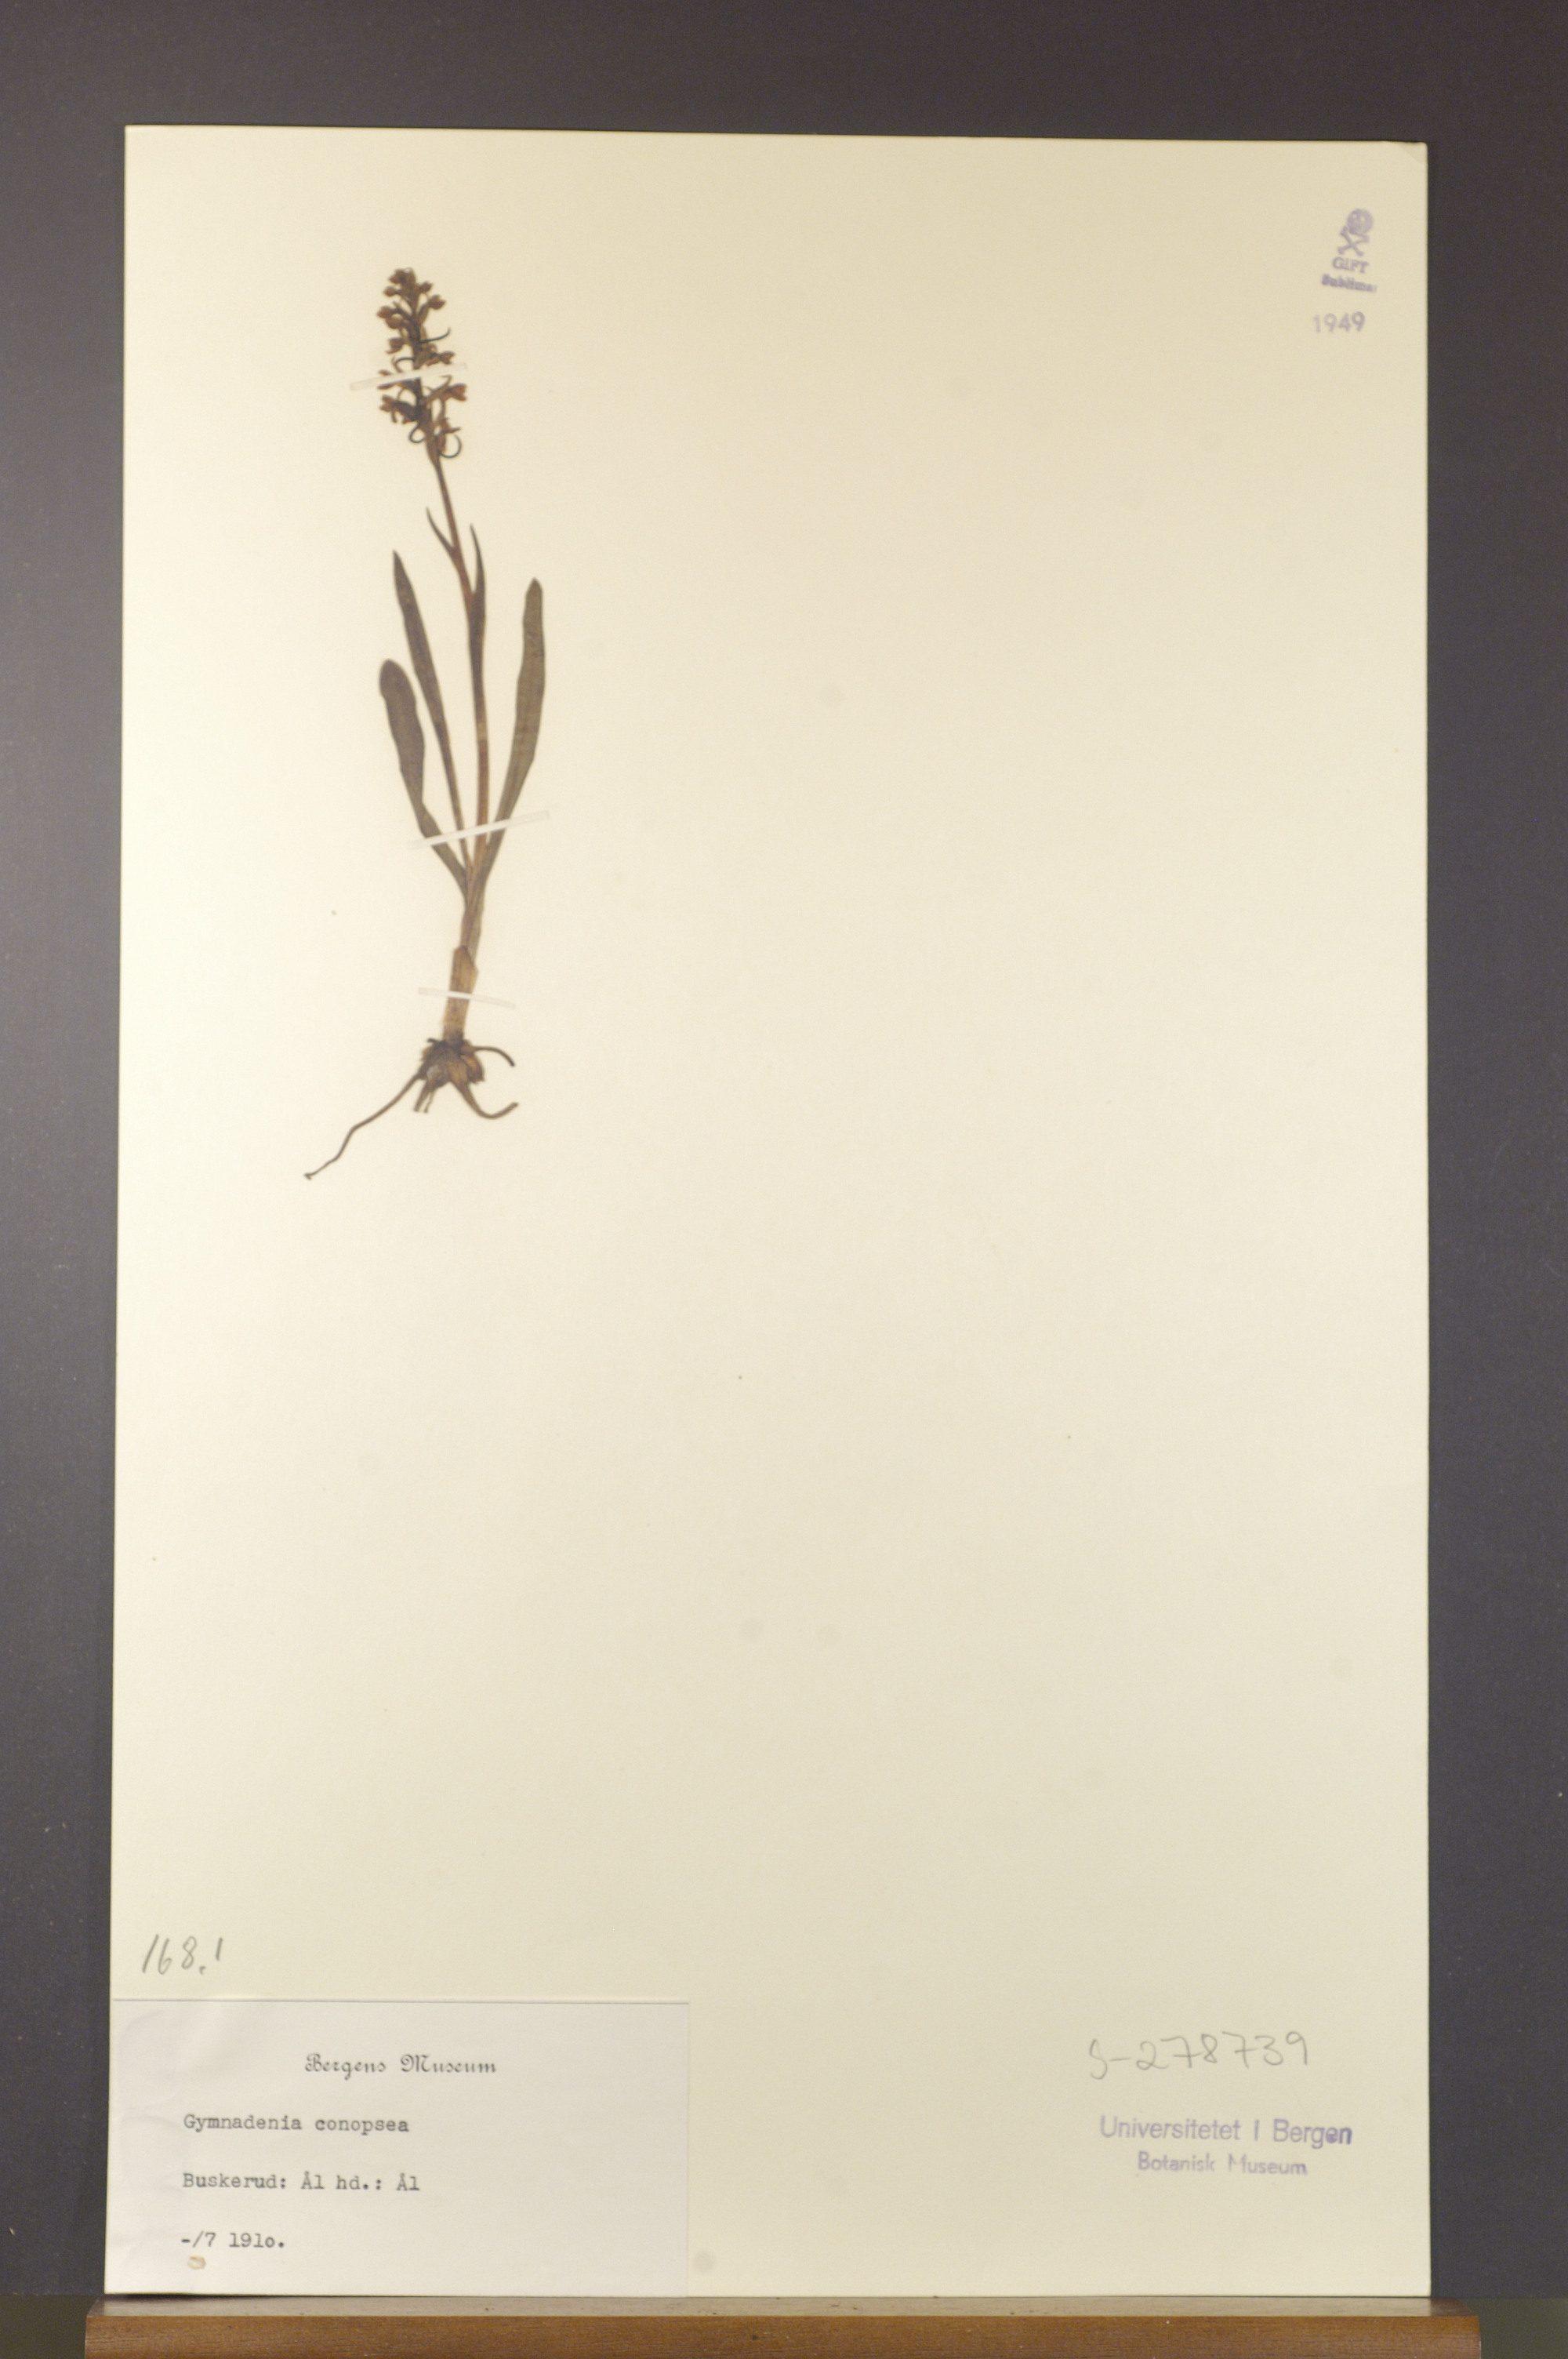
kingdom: Plantae
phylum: Tracheophyta
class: Liliopsida
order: Asparagales
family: Orchidaceae
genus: Gymnadenia
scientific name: Gymnadenia conopsea
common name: Fragrant orchid
